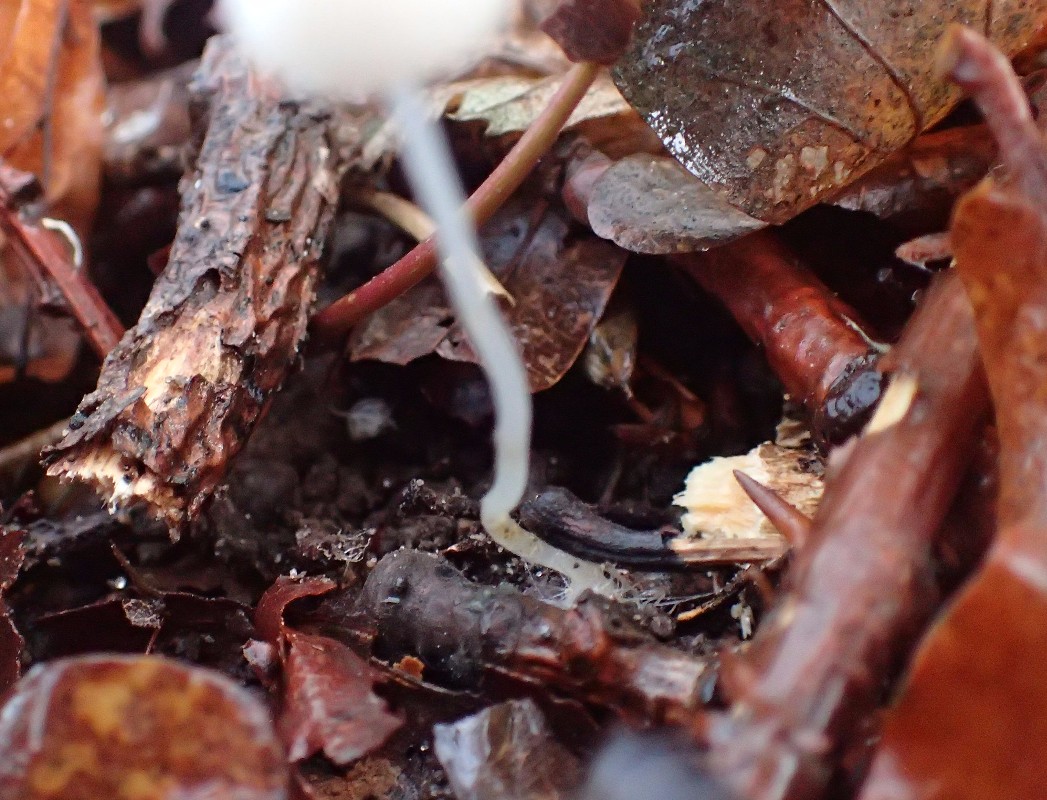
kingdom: Fungi
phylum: Basidiomycota
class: Agaricomycetes
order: Agaricales
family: Porotheleaceae
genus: Phloeomana
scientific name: Phloeomana minutula
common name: bleg huesvamp
